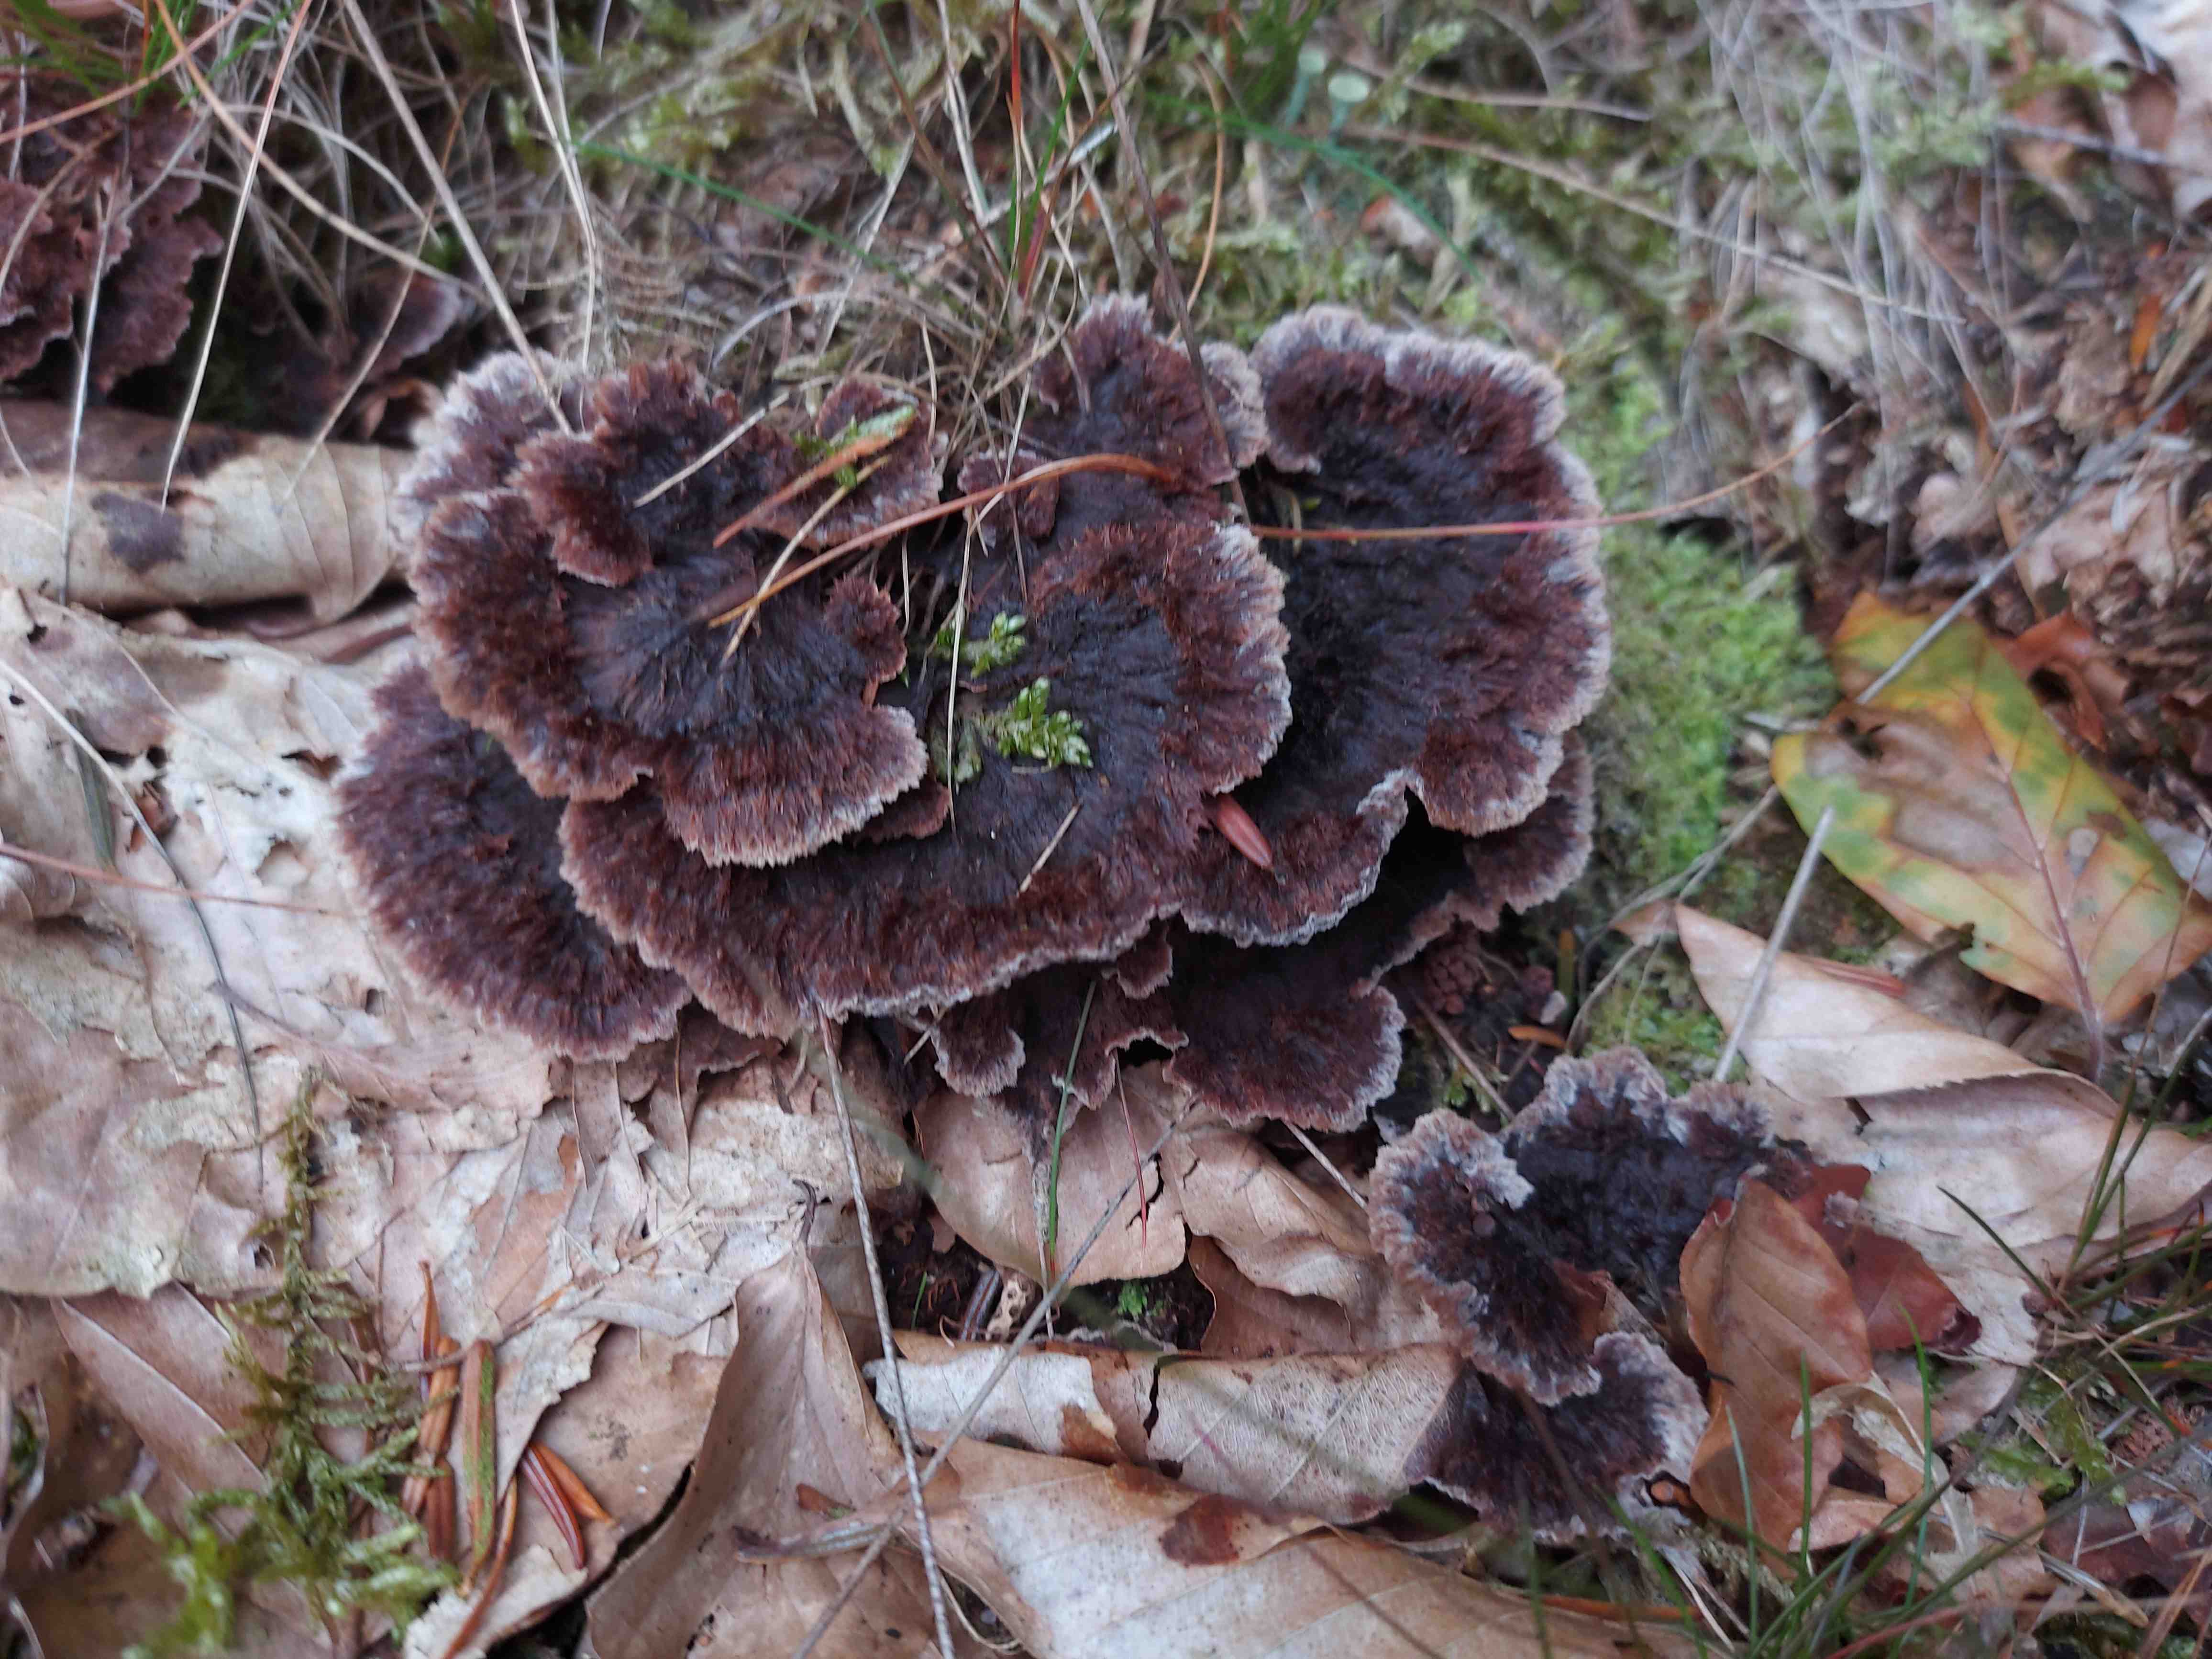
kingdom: Fungi
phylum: Basidiomycota
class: Agaricomycetes
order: Thelephorales
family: Thelephoraceae
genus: Thelephora
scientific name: Thelephora terrestris
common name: fliget frynsesvamp
